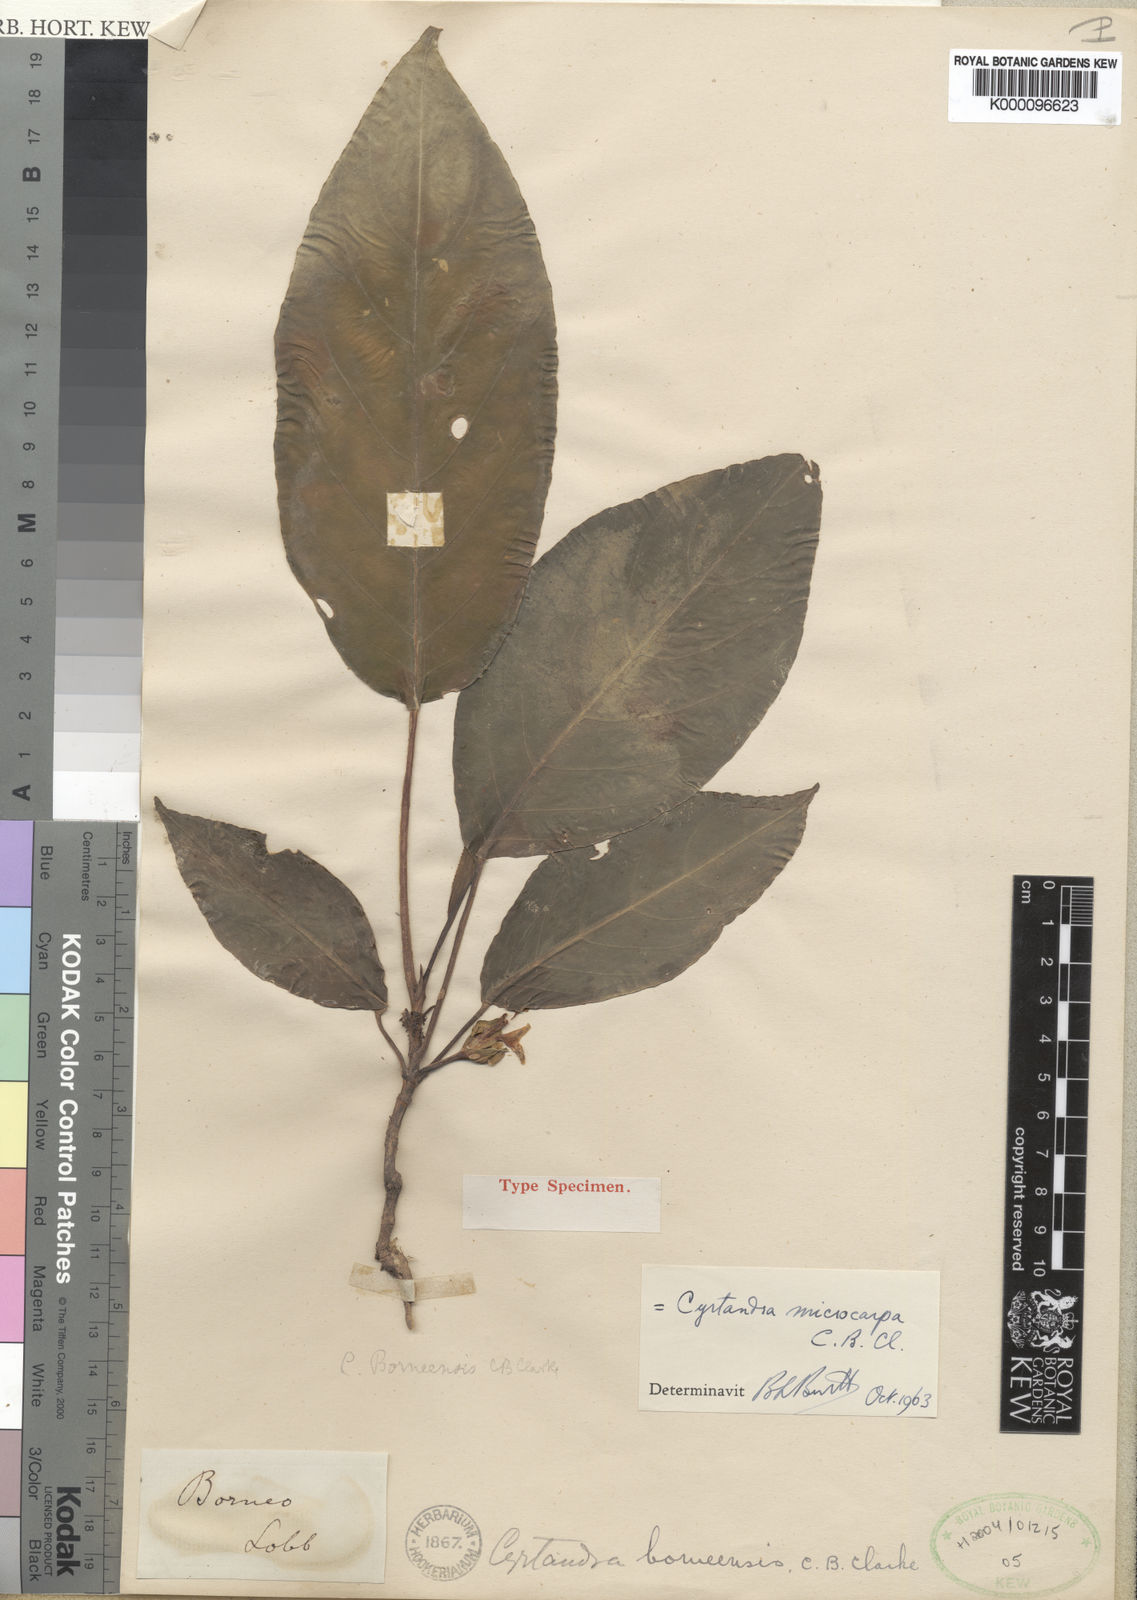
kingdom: Plantae
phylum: Tracheophyta
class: Magnoliopsida
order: Lamiales
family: Gesneriaceae
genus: Cyrtandra
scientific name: Cyrtandra borneensis
